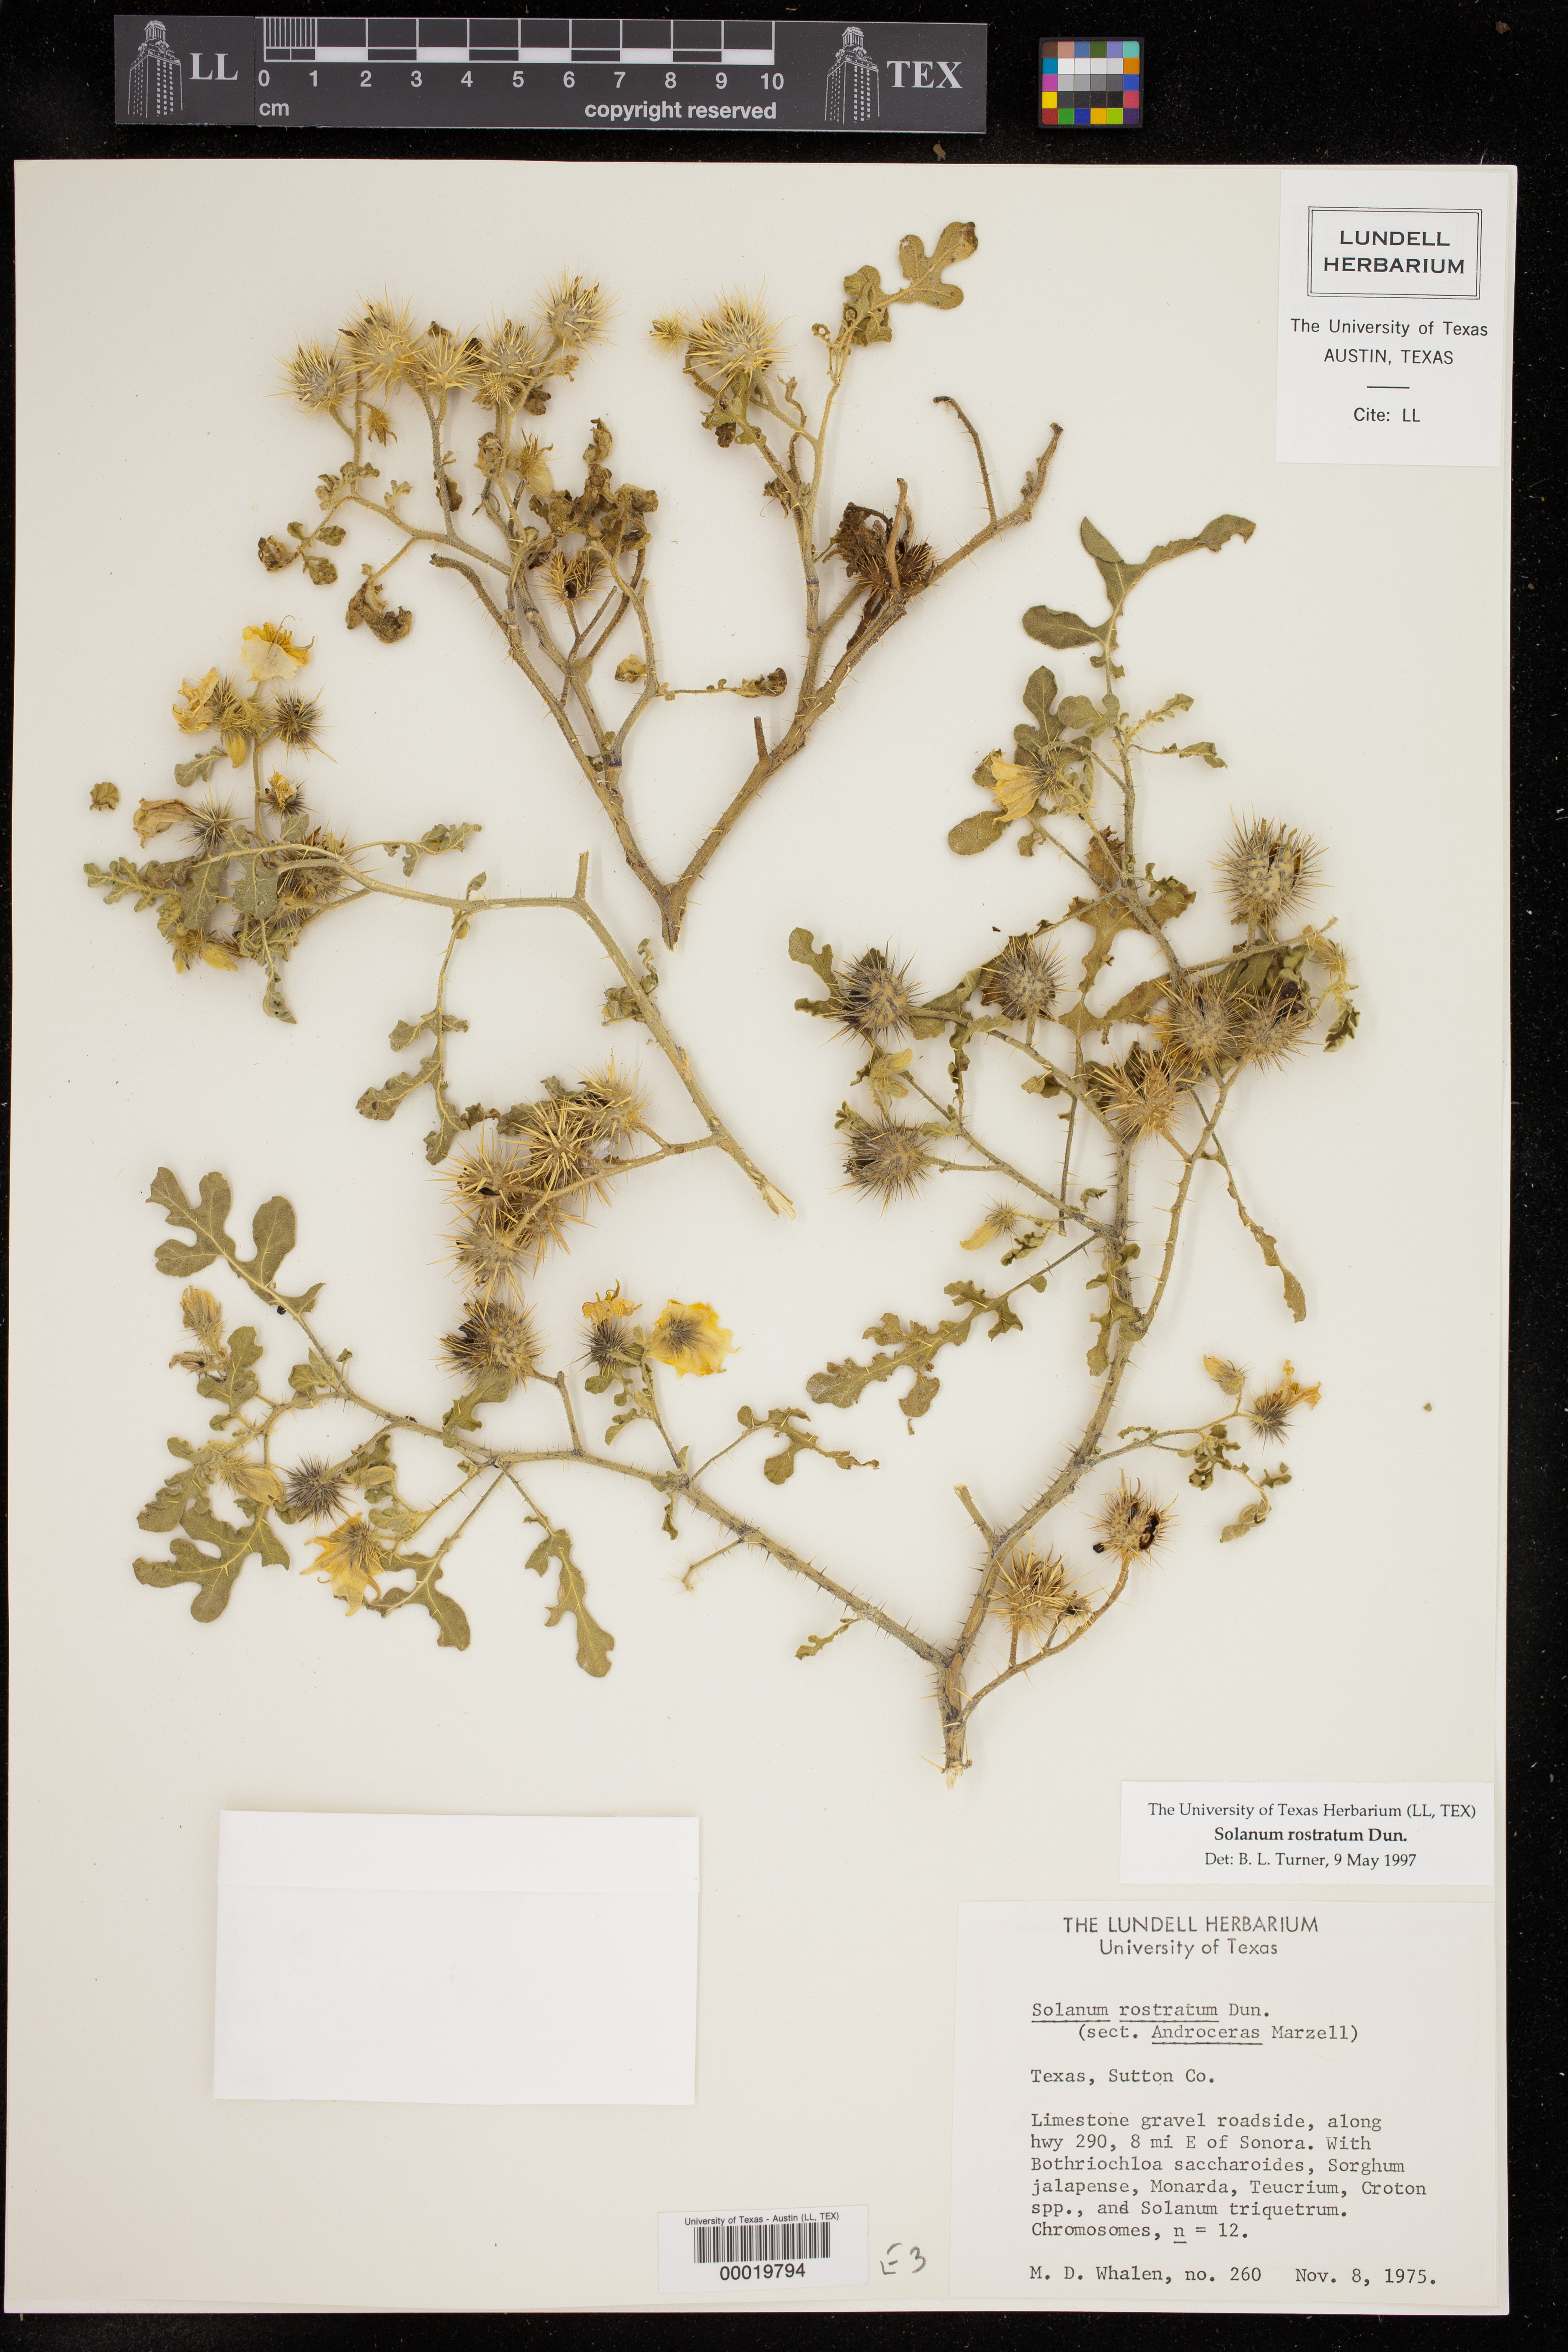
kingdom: Plantae
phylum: Tracheophyta
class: Magnoliopsida
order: Solanales
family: Solanaceae
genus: Solanum
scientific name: Solanum angustifolium
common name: Buffalobur nightshade
